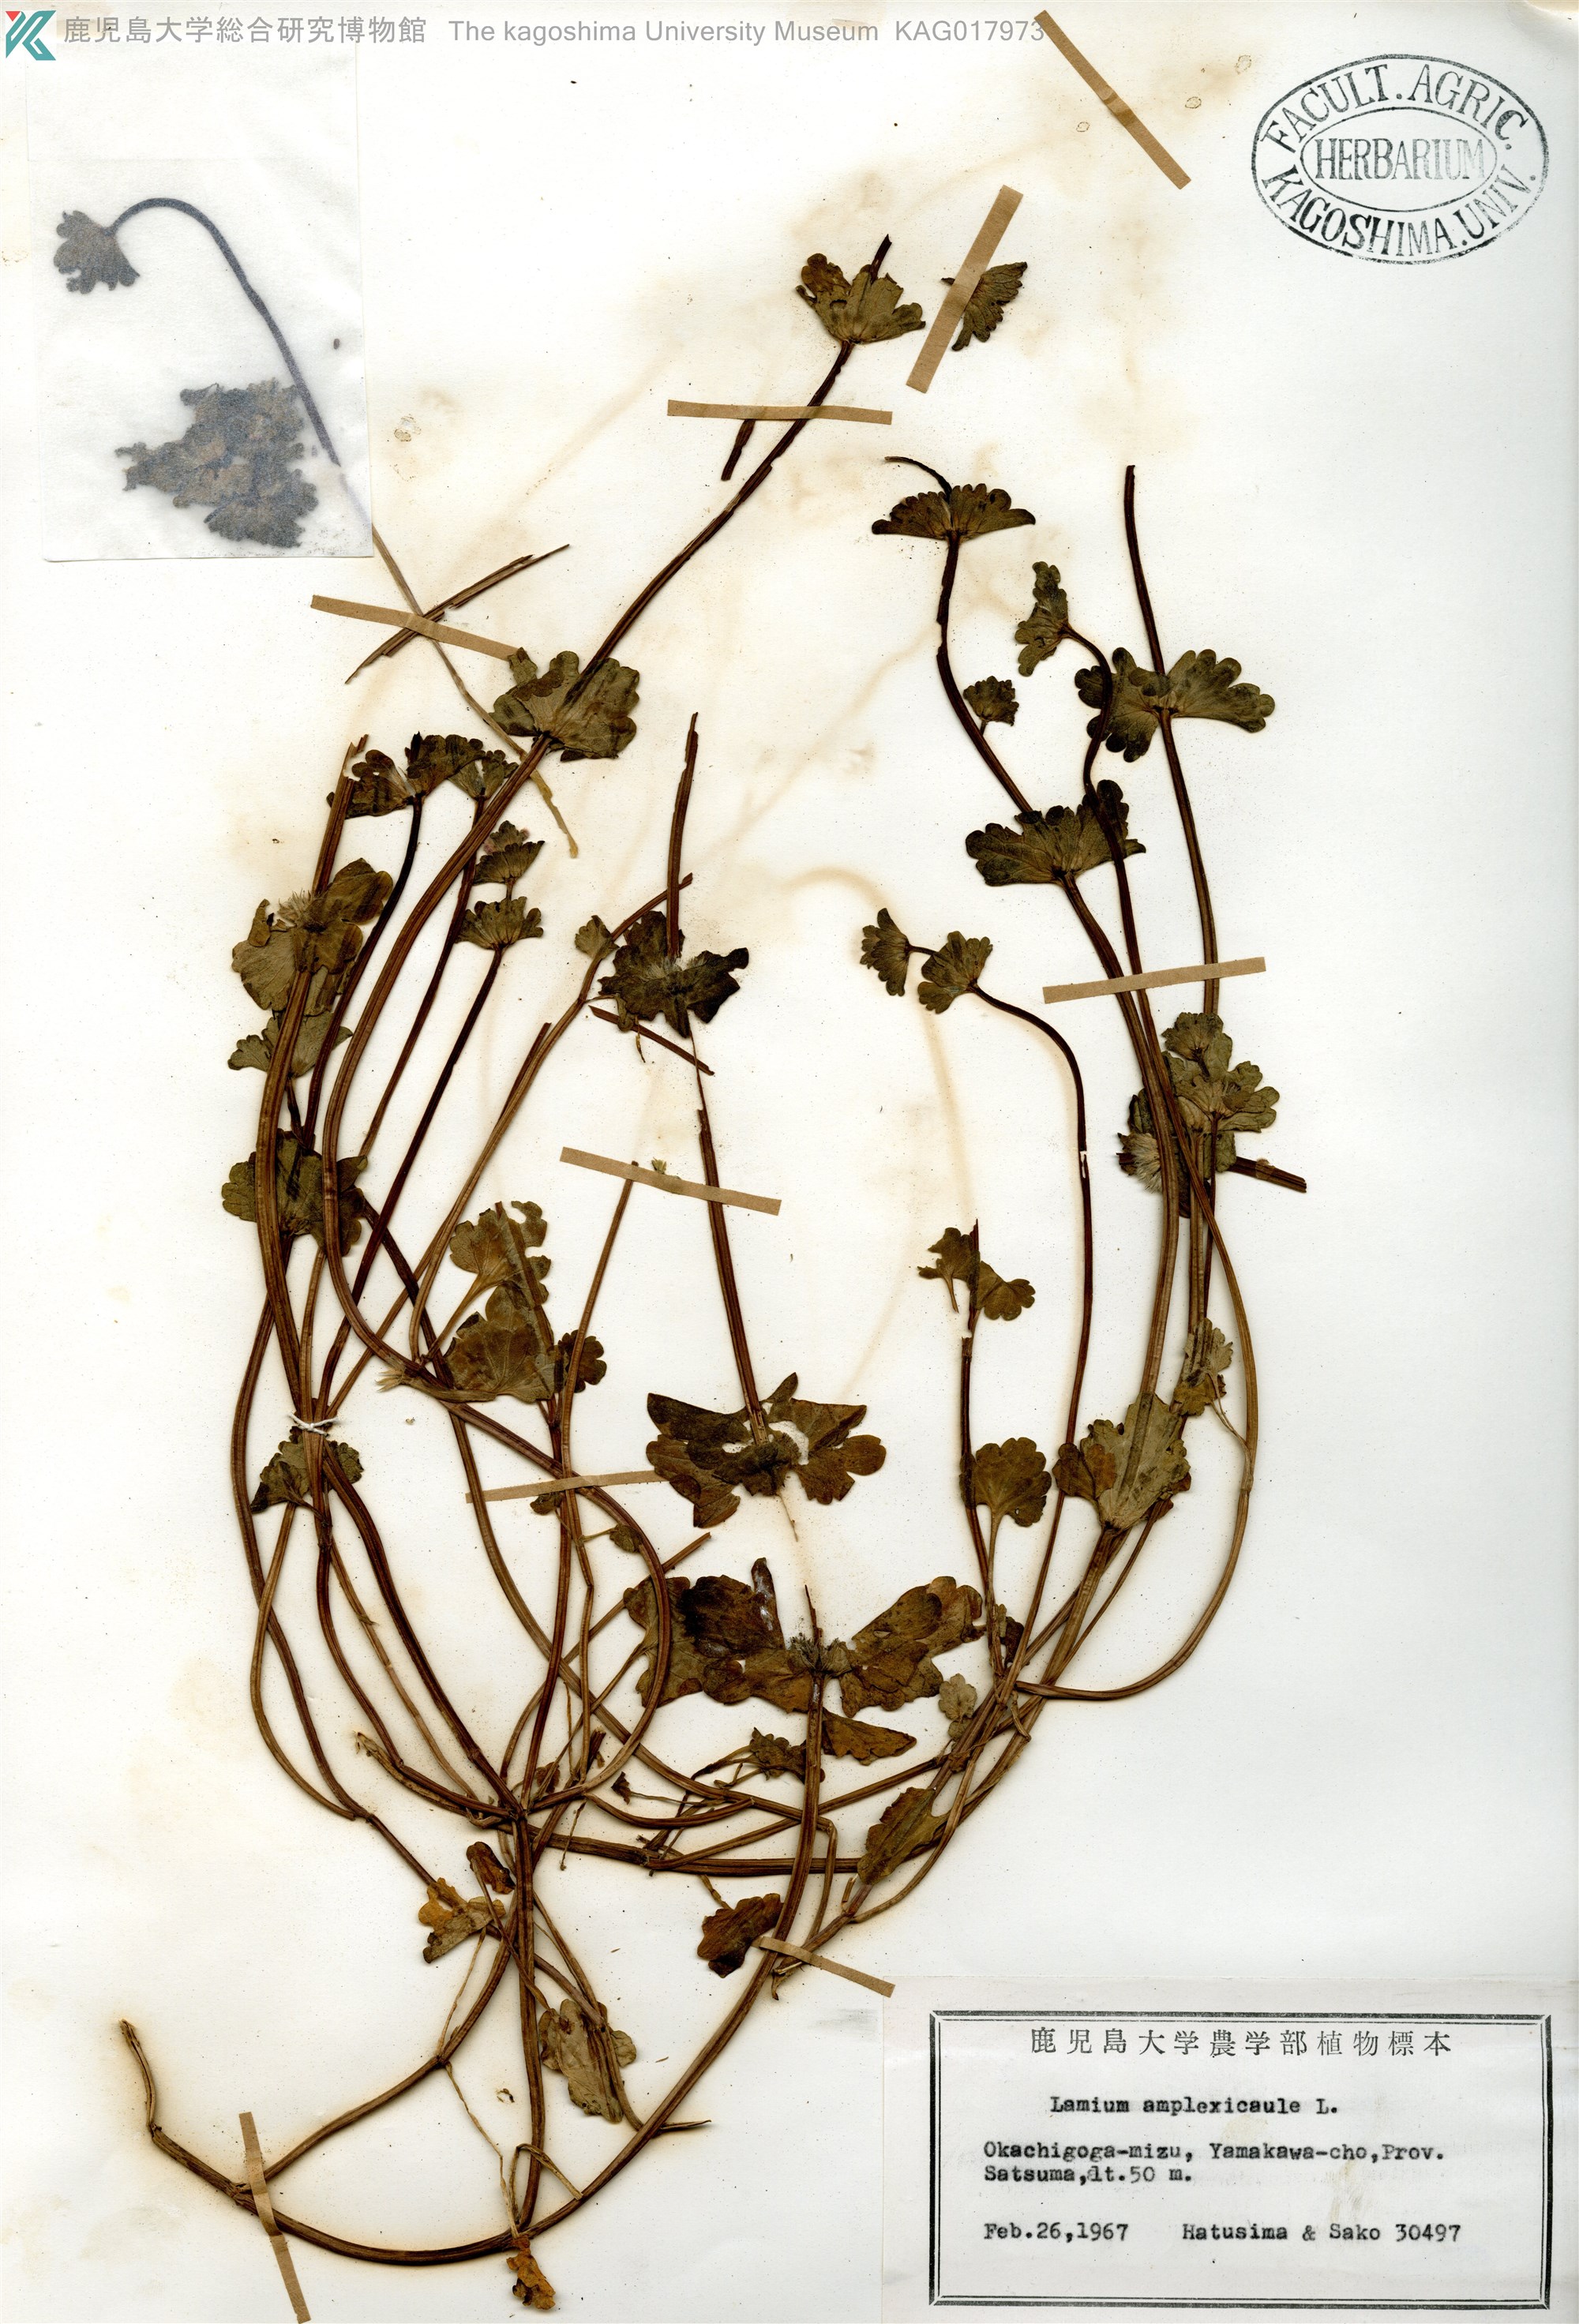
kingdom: Plantae
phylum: Tracheophyta
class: Magnoliopsida
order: Lamiales
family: Lamiaceae
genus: Lamium
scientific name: Lamium amplexicaule
